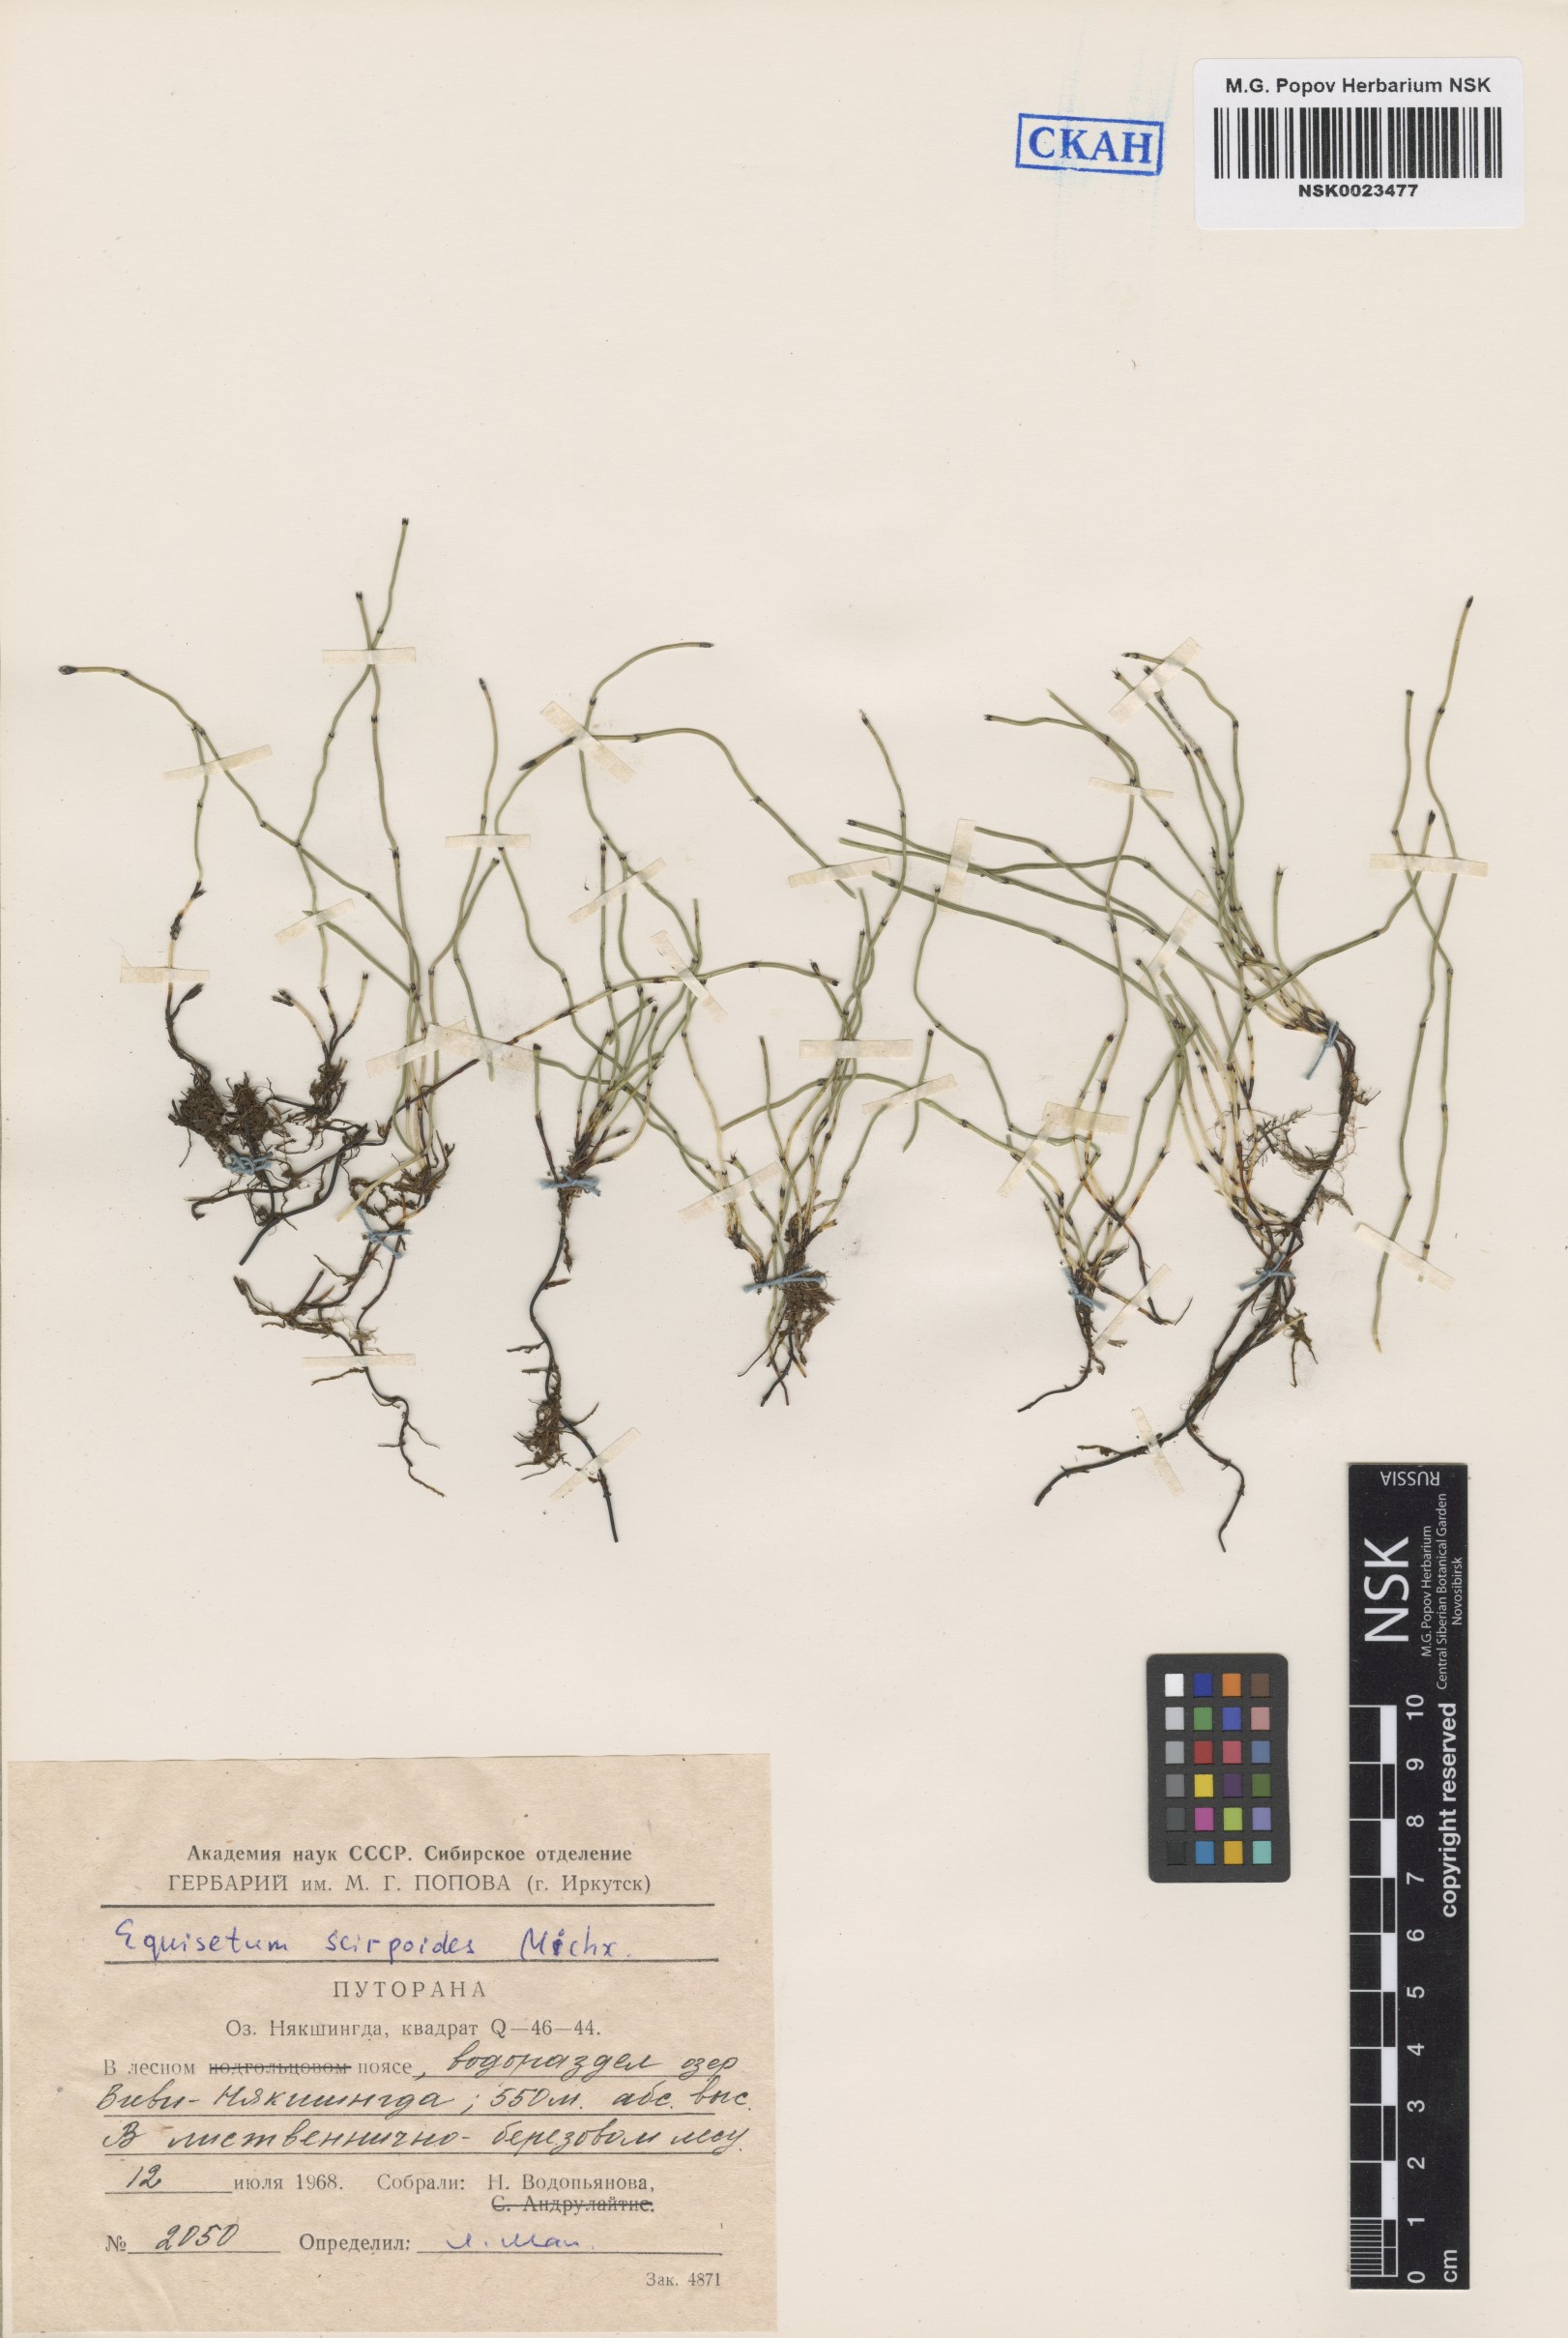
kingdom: Plantae
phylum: Tracheophyta
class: Polypodiopsida
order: Equisetales
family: Equisetaceae
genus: Equisetum
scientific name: Equisetum scirpoides
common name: Delicate horsetail
